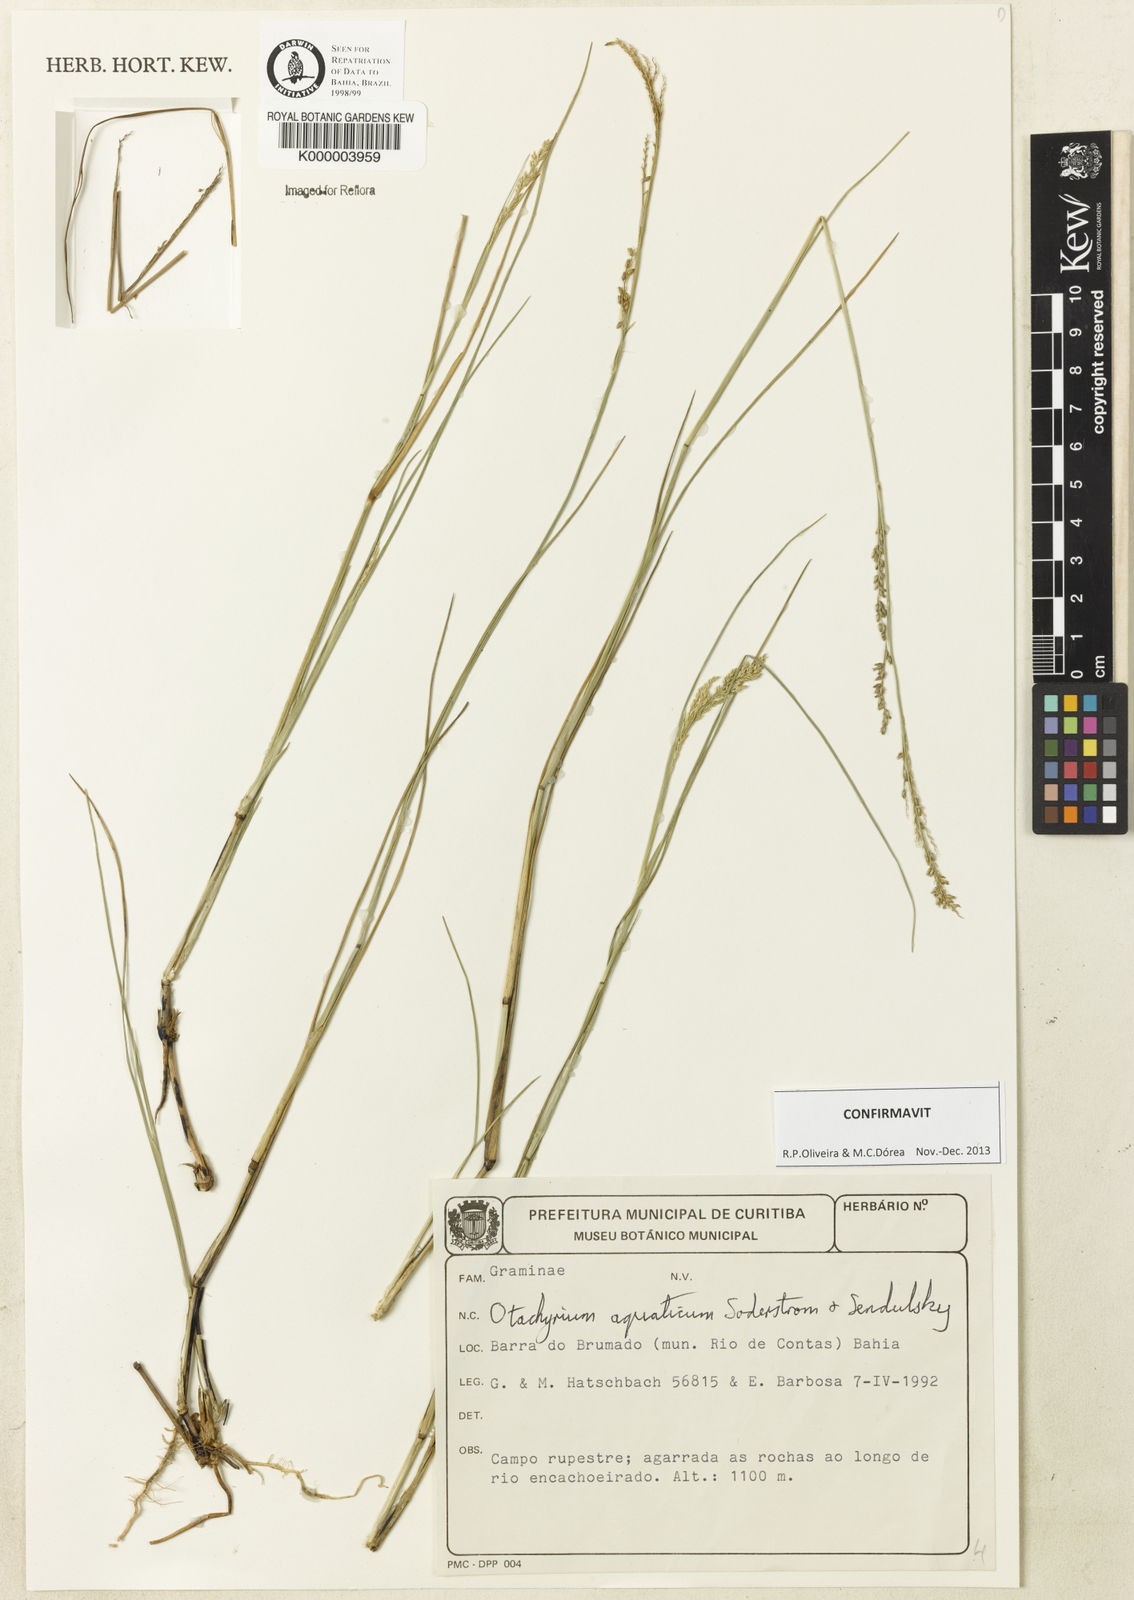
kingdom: Plantae
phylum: Tracheophyta
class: Liliopsida
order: Poales
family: Poaceae
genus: Otachyrium
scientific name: Otachyrium aquaticum
